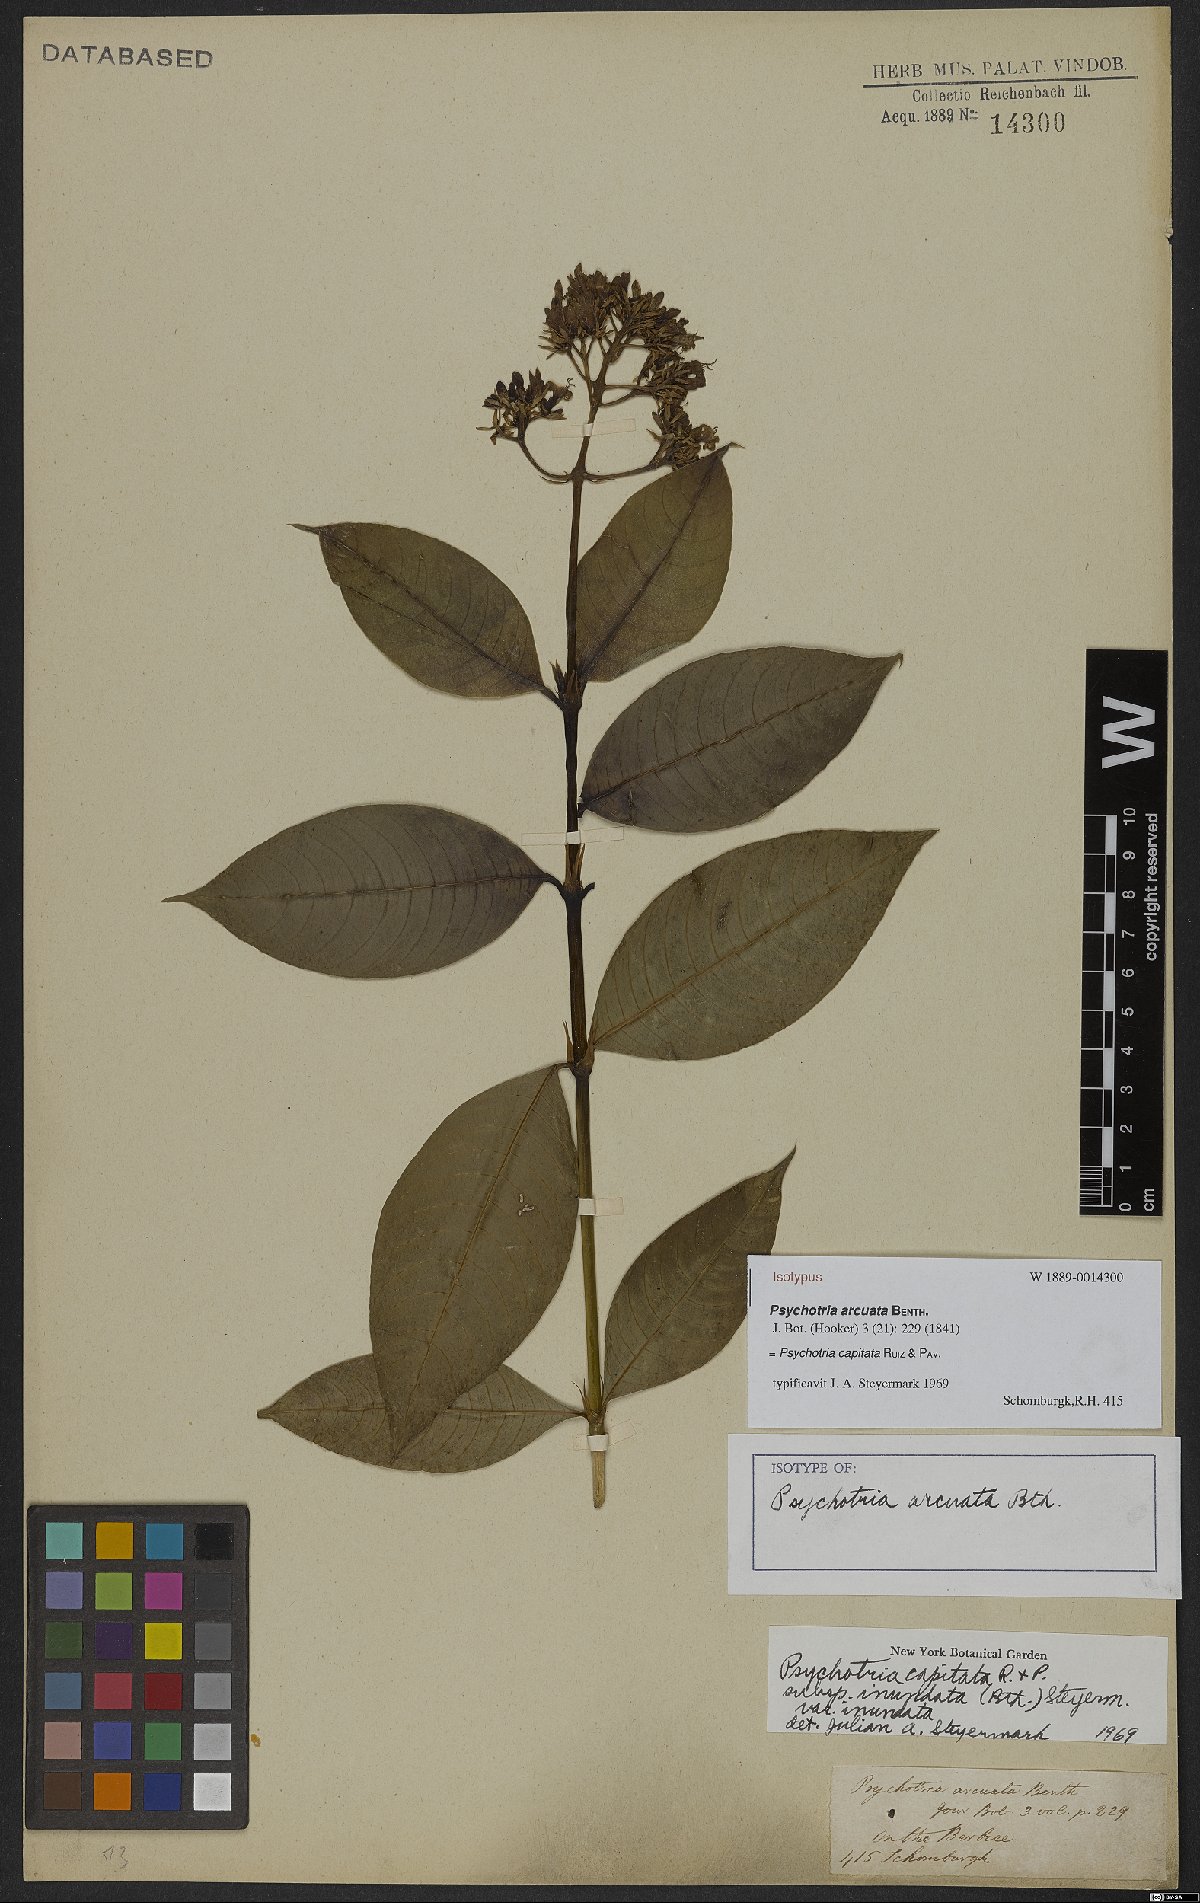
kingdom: Plantae
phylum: Tracheophyta
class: Magnoliopsida
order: Gentianales
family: Rubiaceae
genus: Palicourea
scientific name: Palicourea violacea
